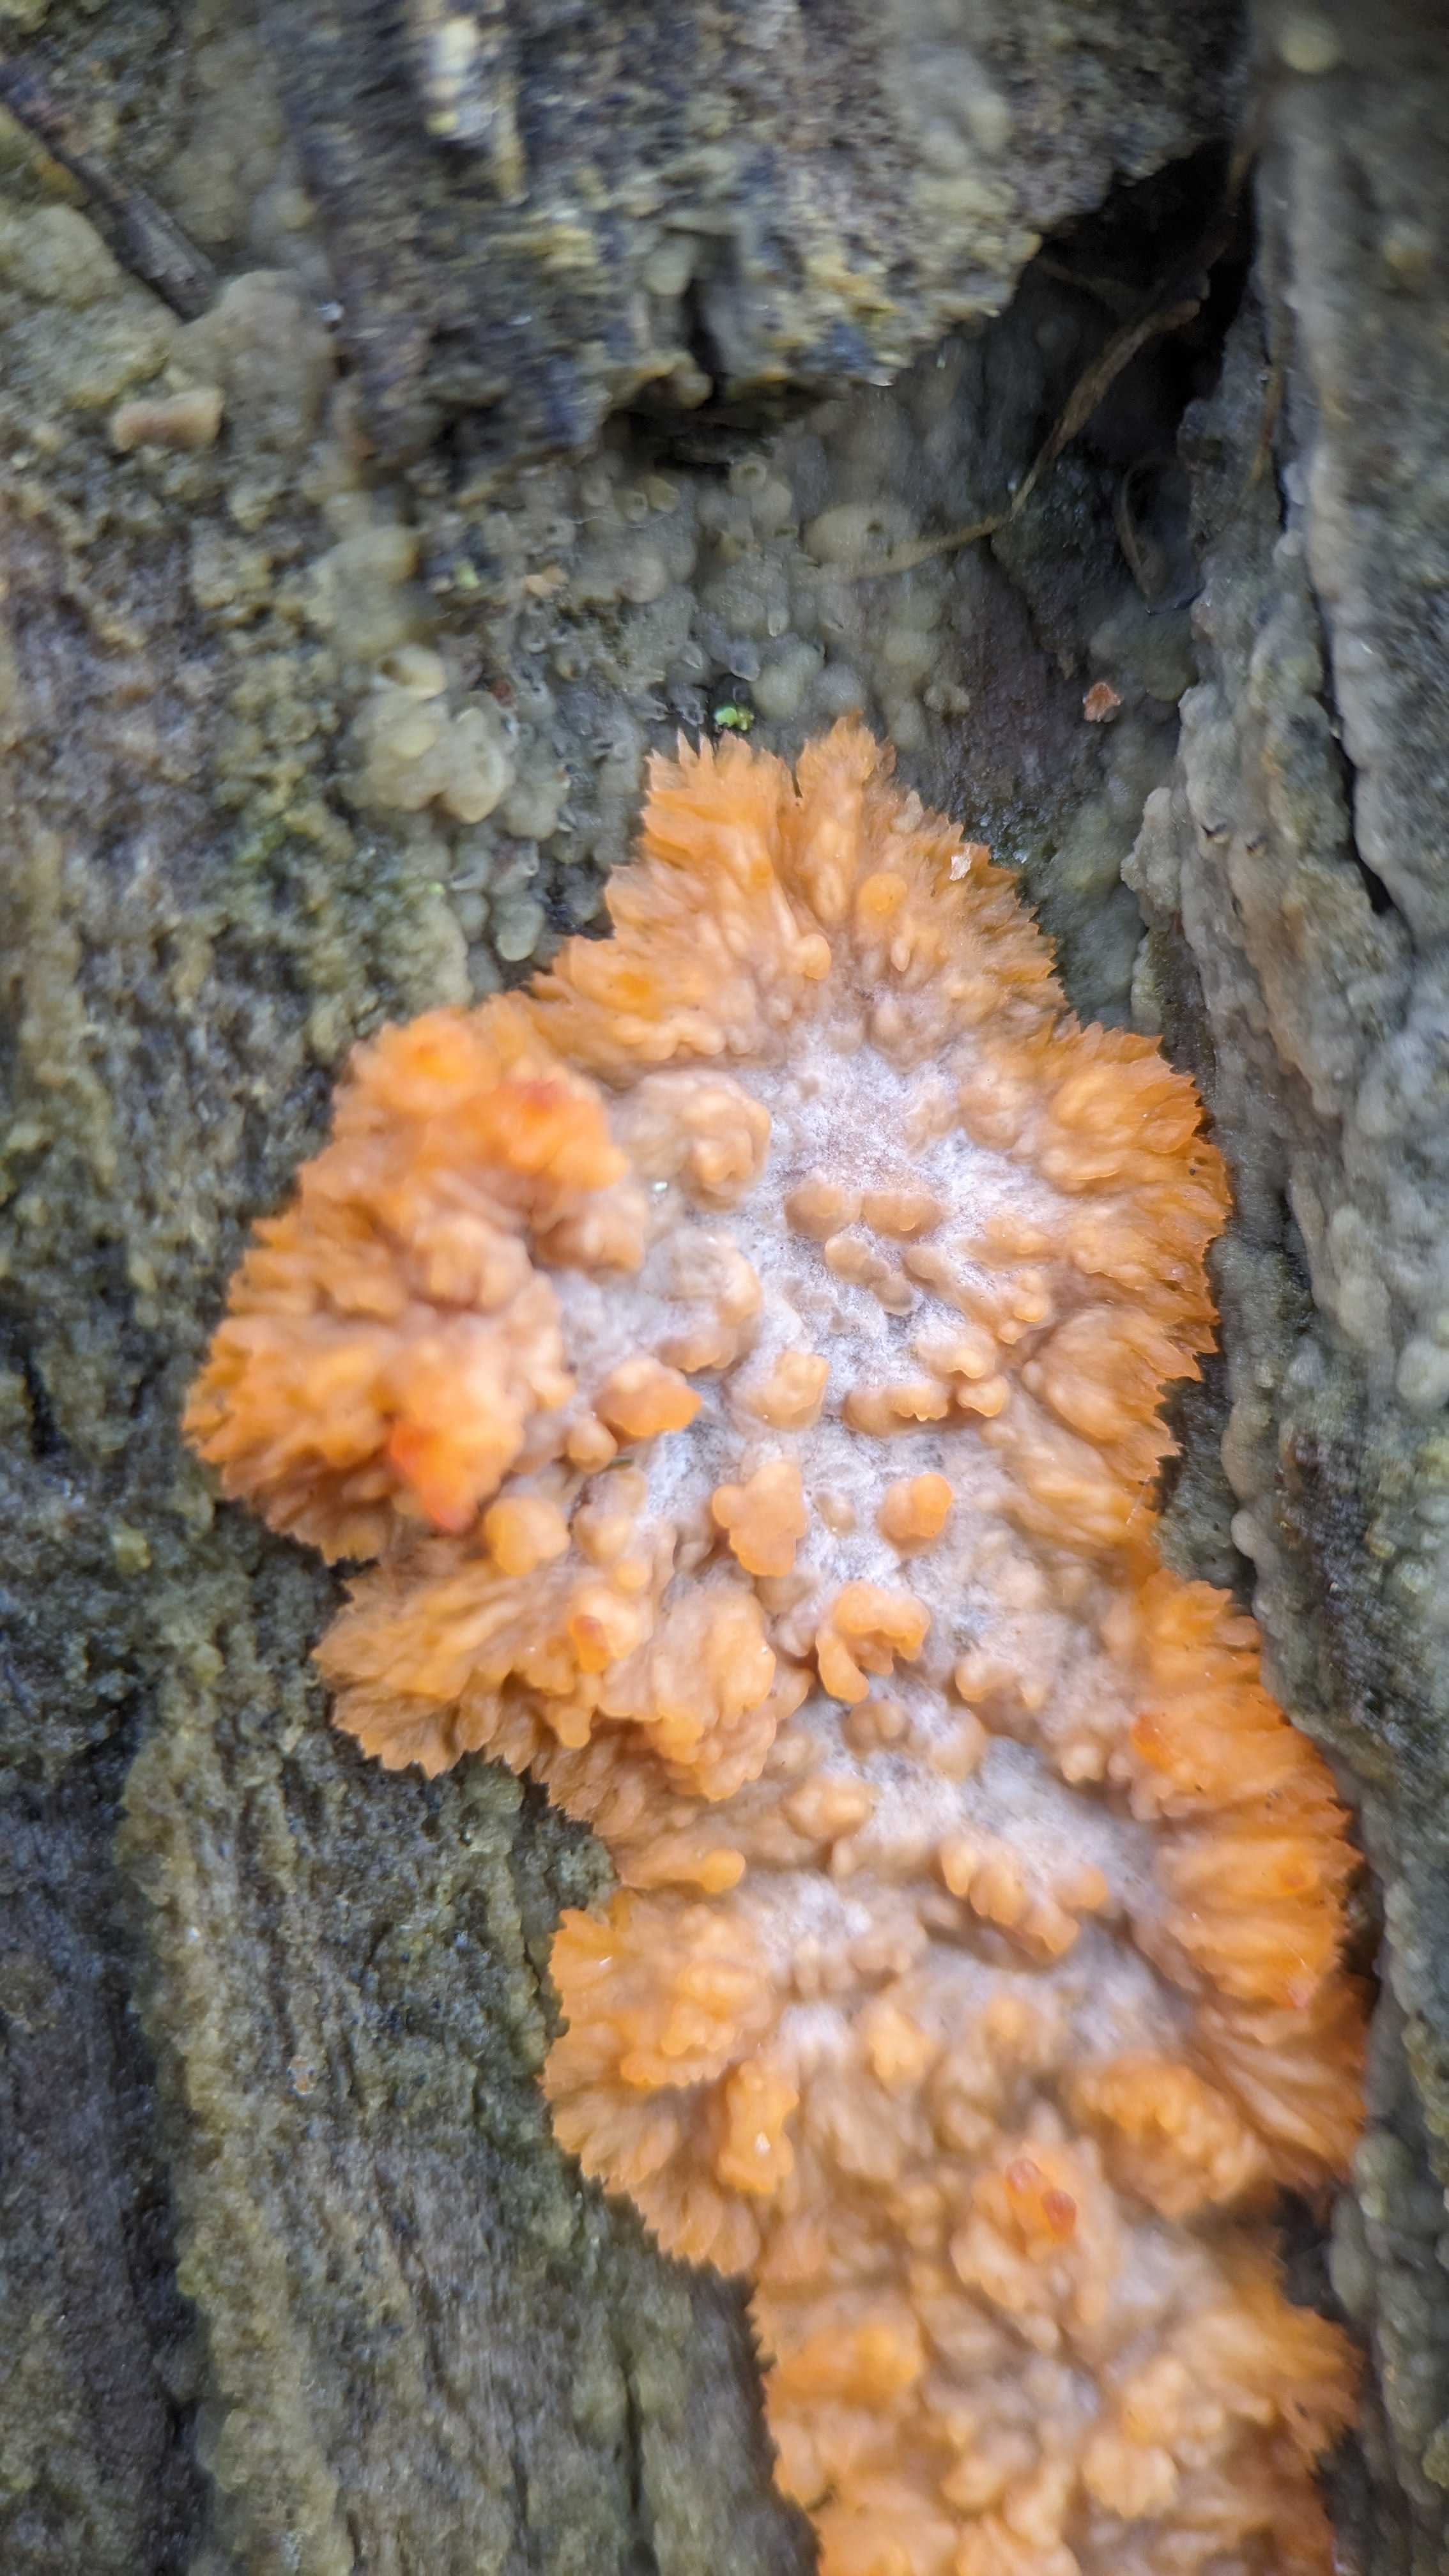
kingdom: Fungi
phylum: Basidiomycota
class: Agaricomycetes
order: Polyporales
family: Meruliaceae
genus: Phlebia
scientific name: Phlebia radiata
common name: stråle-åresvamp
